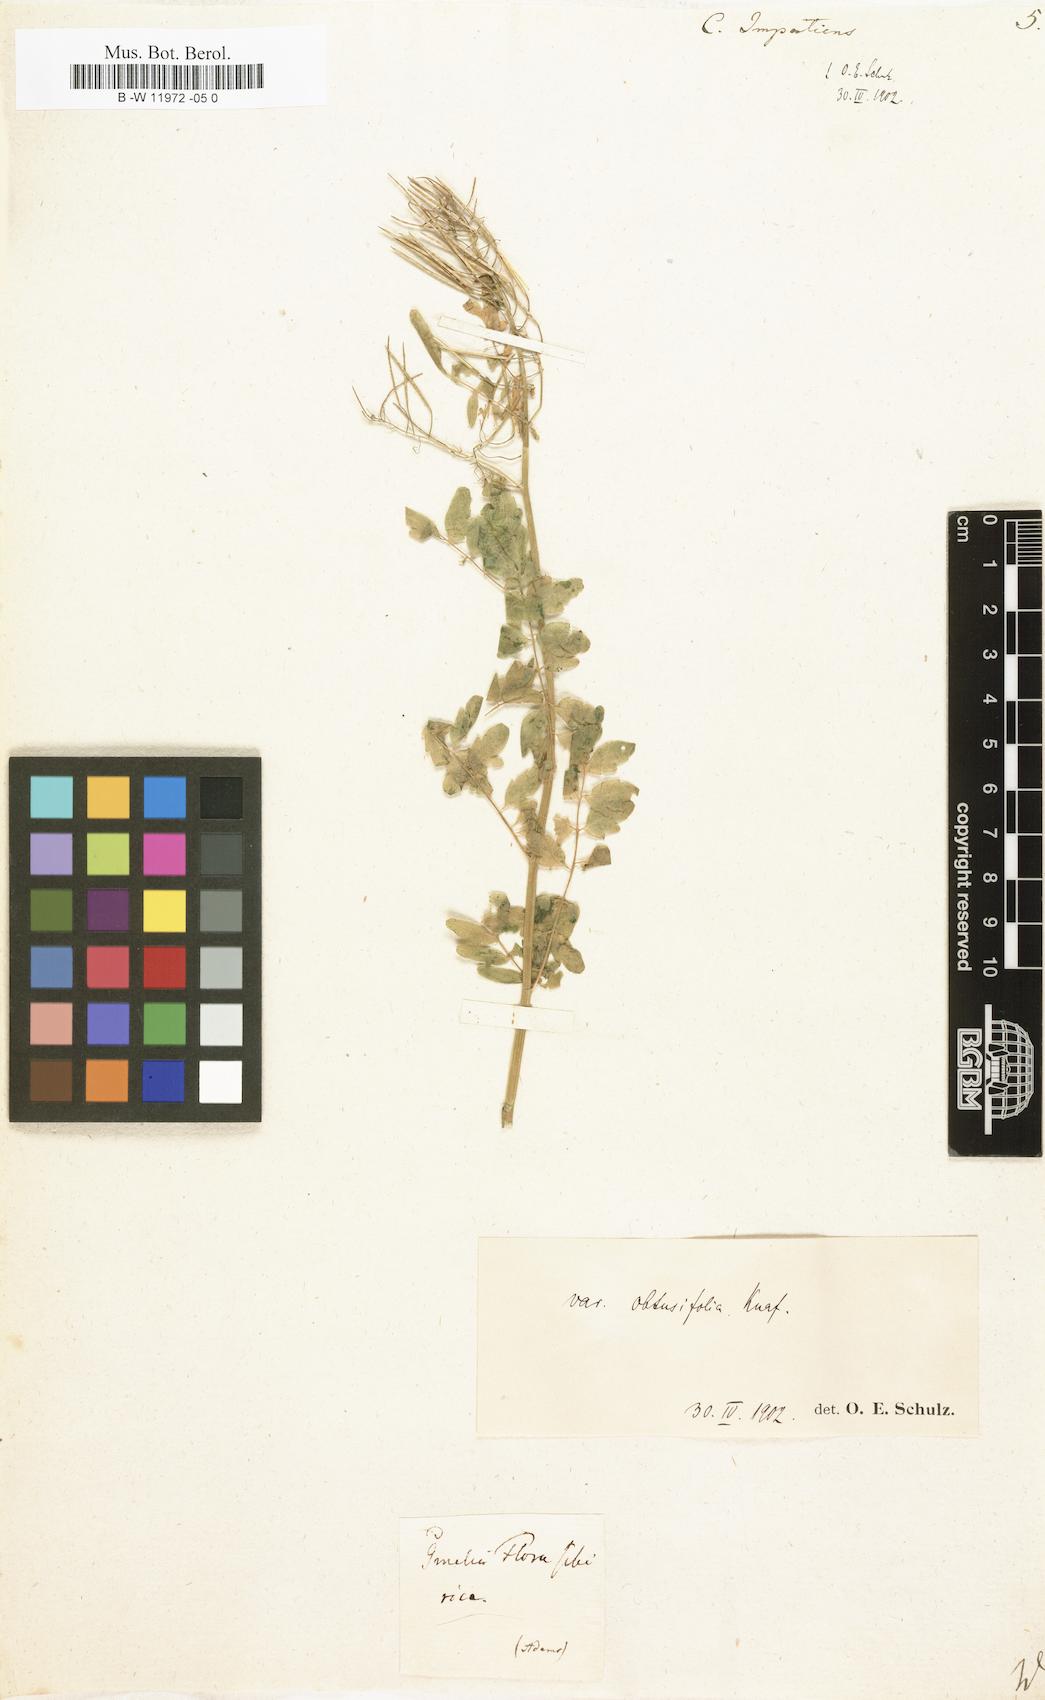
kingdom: Plantae
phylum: Tracheophyta
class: Magnoliopsida
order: Brassicales
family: Brassicaceae
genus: Cardamine
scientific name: Cardamine impatiens
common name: Narrow-leaved bitter-cress
